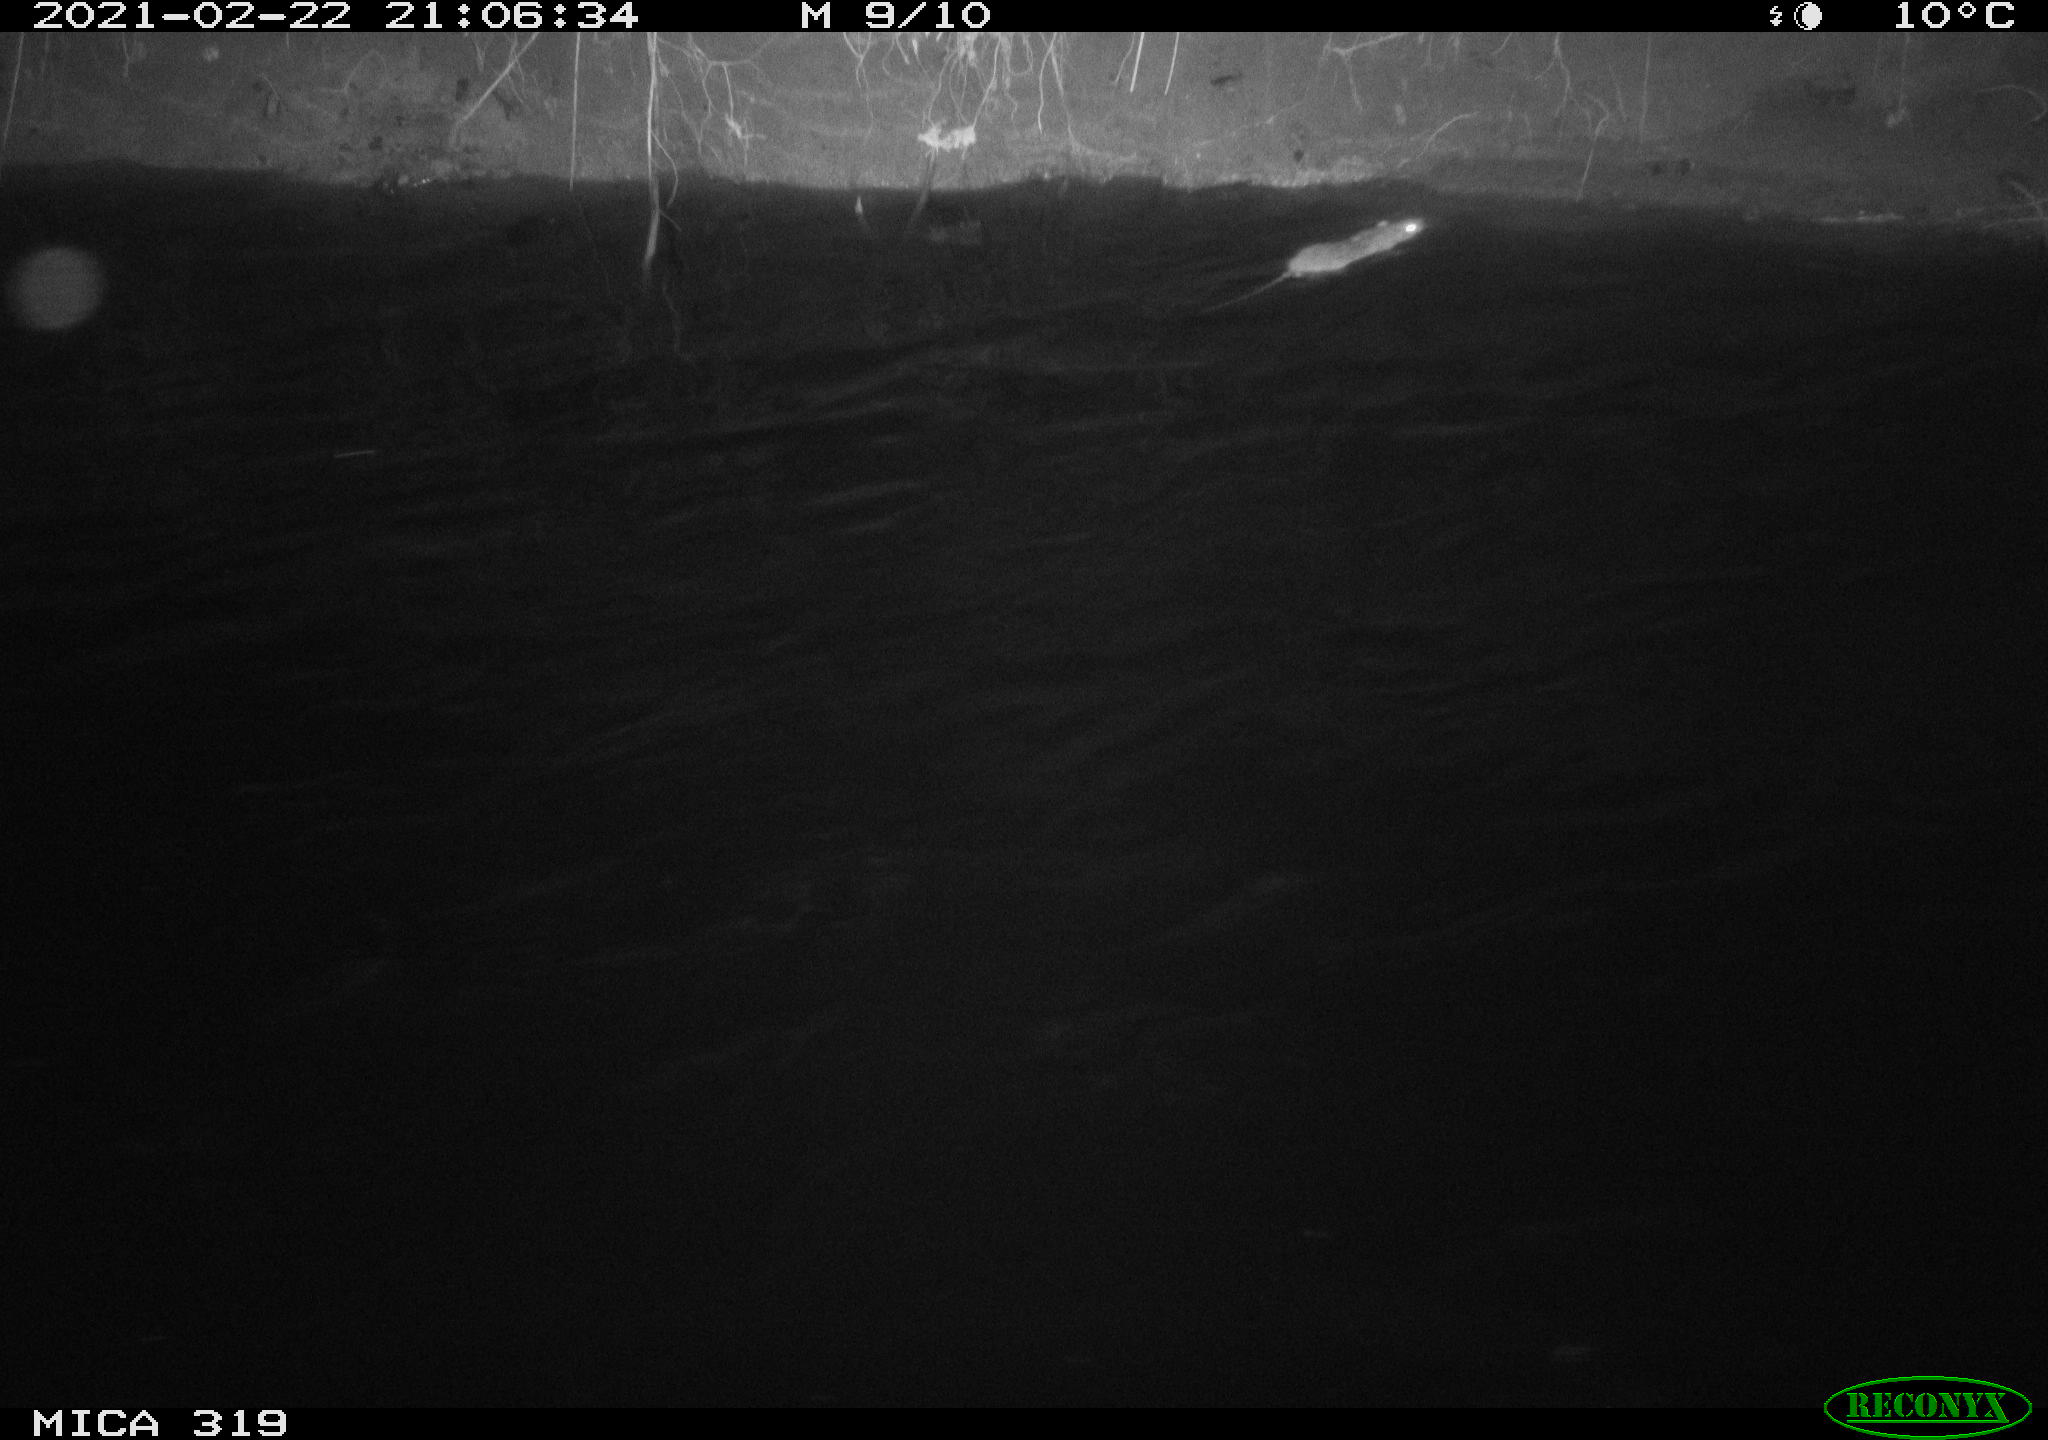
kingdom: Animalia
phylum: Chordata
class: Mammalia
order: Rodentia
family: Muridae
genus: Rattus
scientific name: Rattus norvegicus
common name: Brown rat
